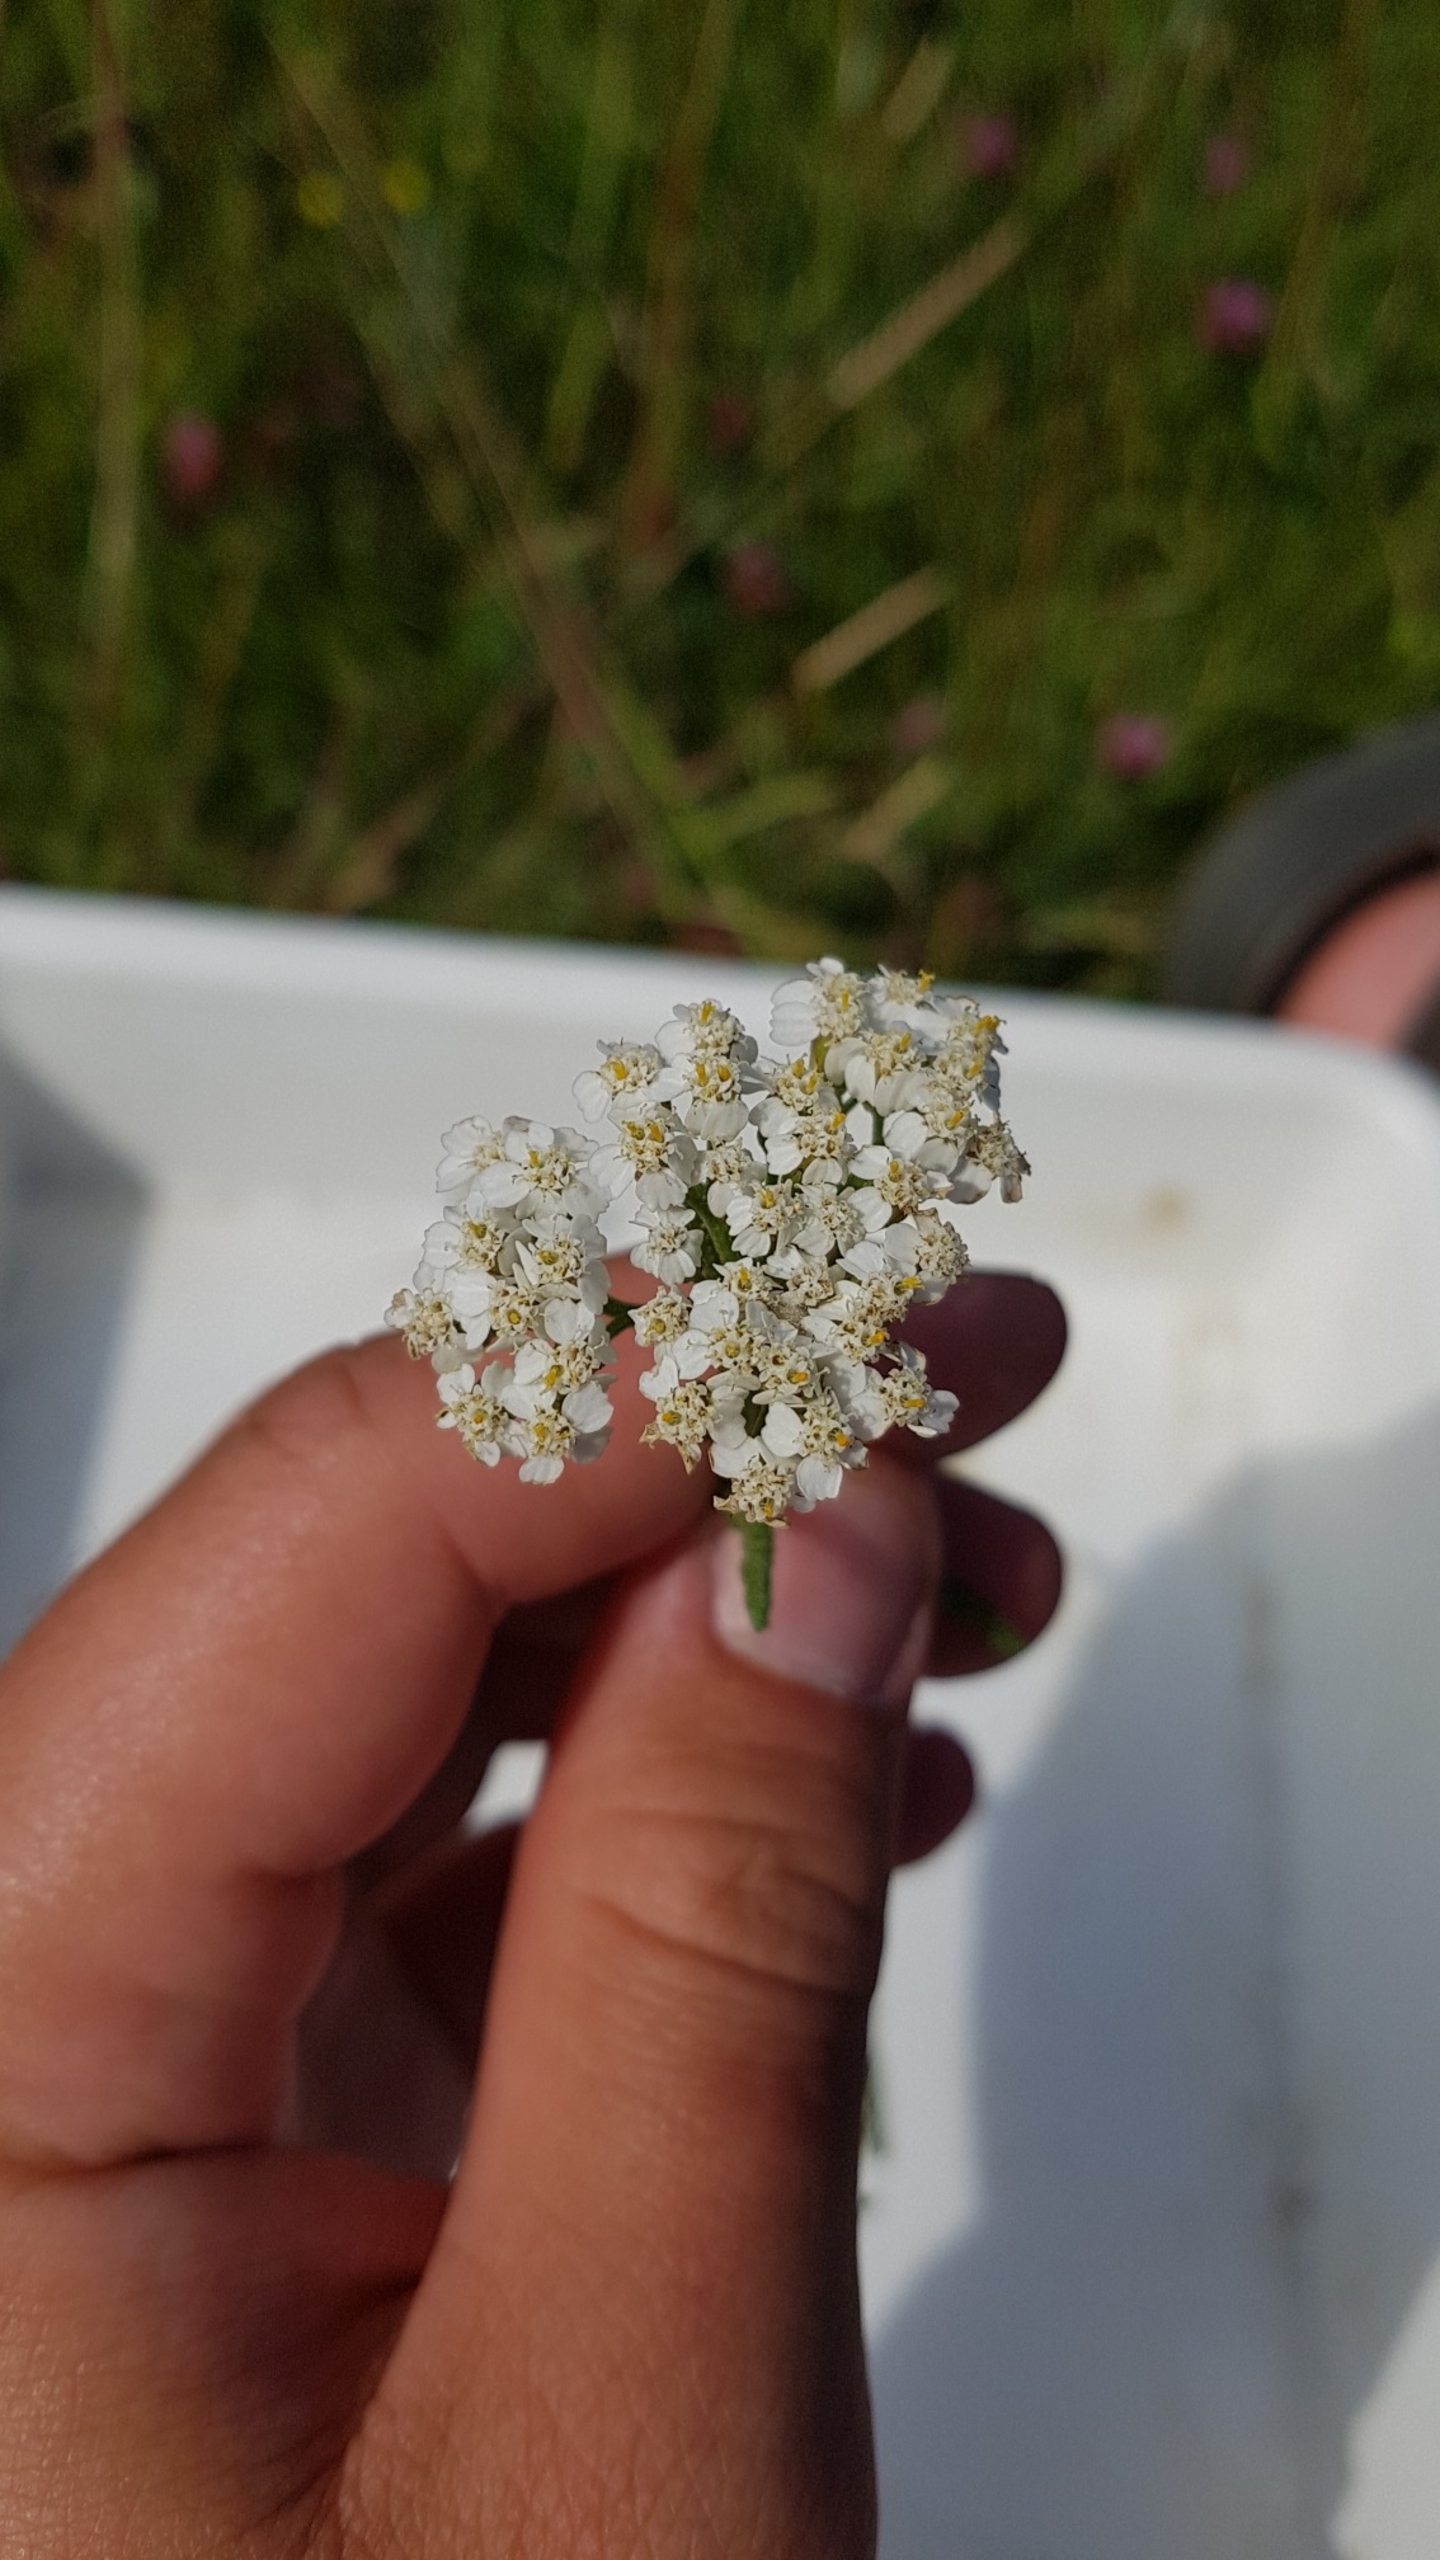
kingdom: Plantae
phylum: Tracheophyta
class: Magnoliopsida
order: Asterales
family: Asteraceae
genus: Achillea
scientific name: Achillea millefolium
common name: Almindelig røllike
